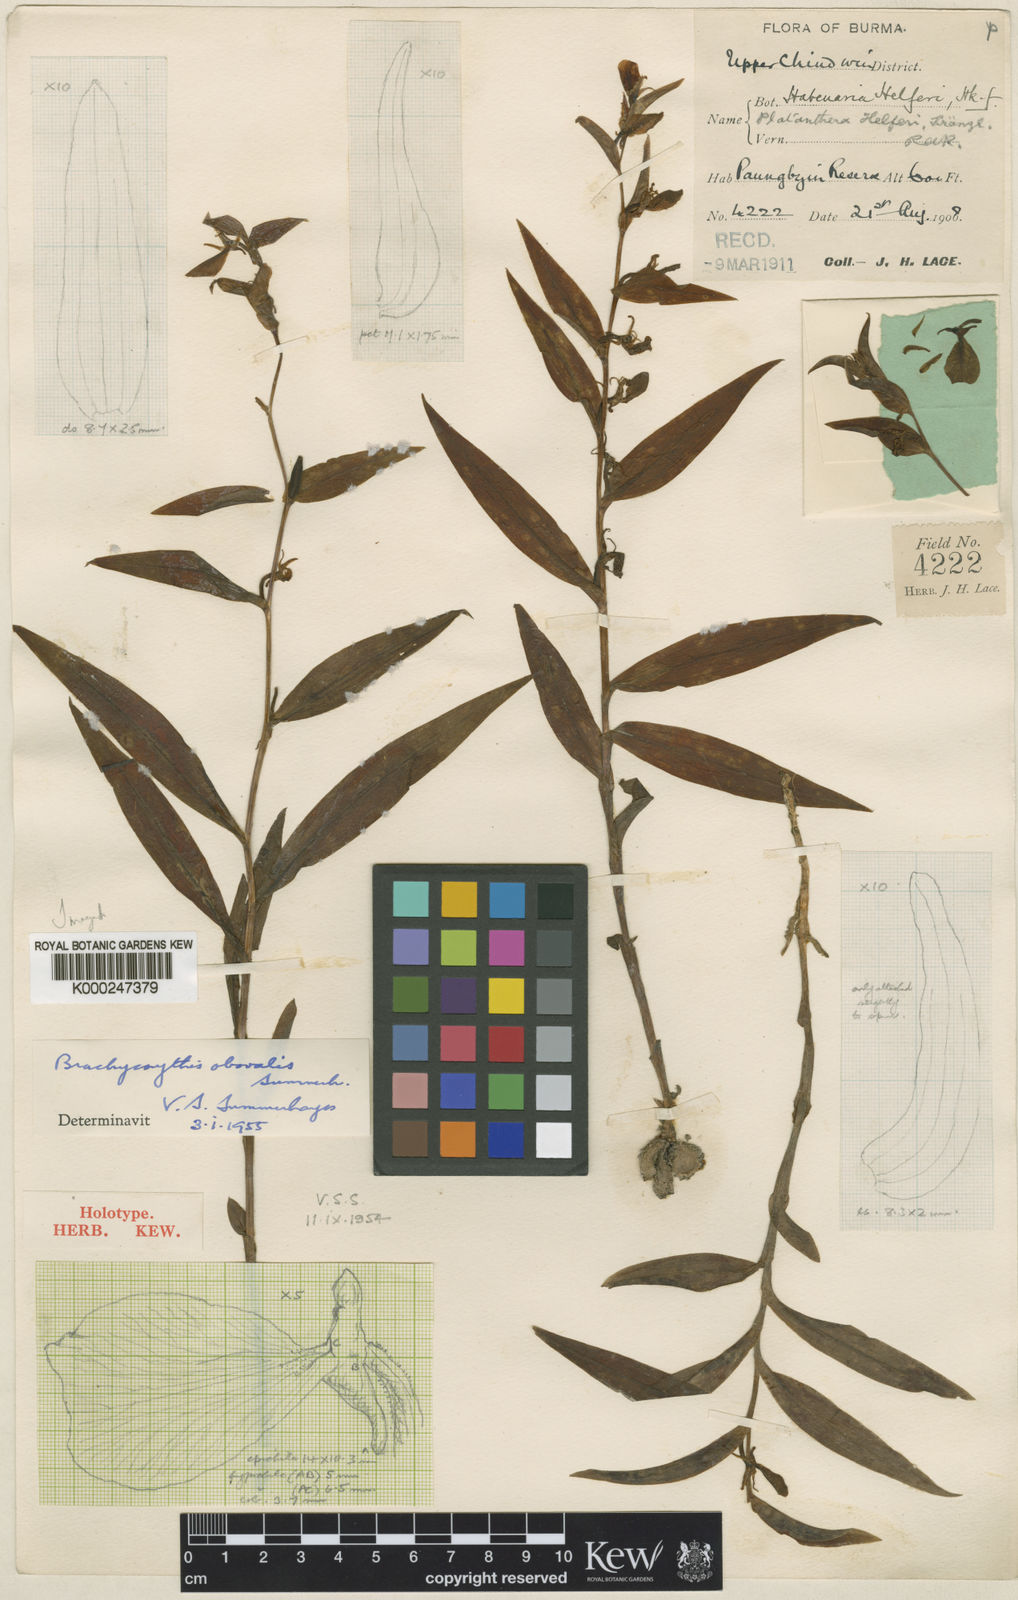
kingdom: Plantae
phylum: Tracheophyta
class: Liliopsida
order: Asparagales
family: Orchidaceae
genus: Brachycorythis
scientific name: Brachycorythis acuta
